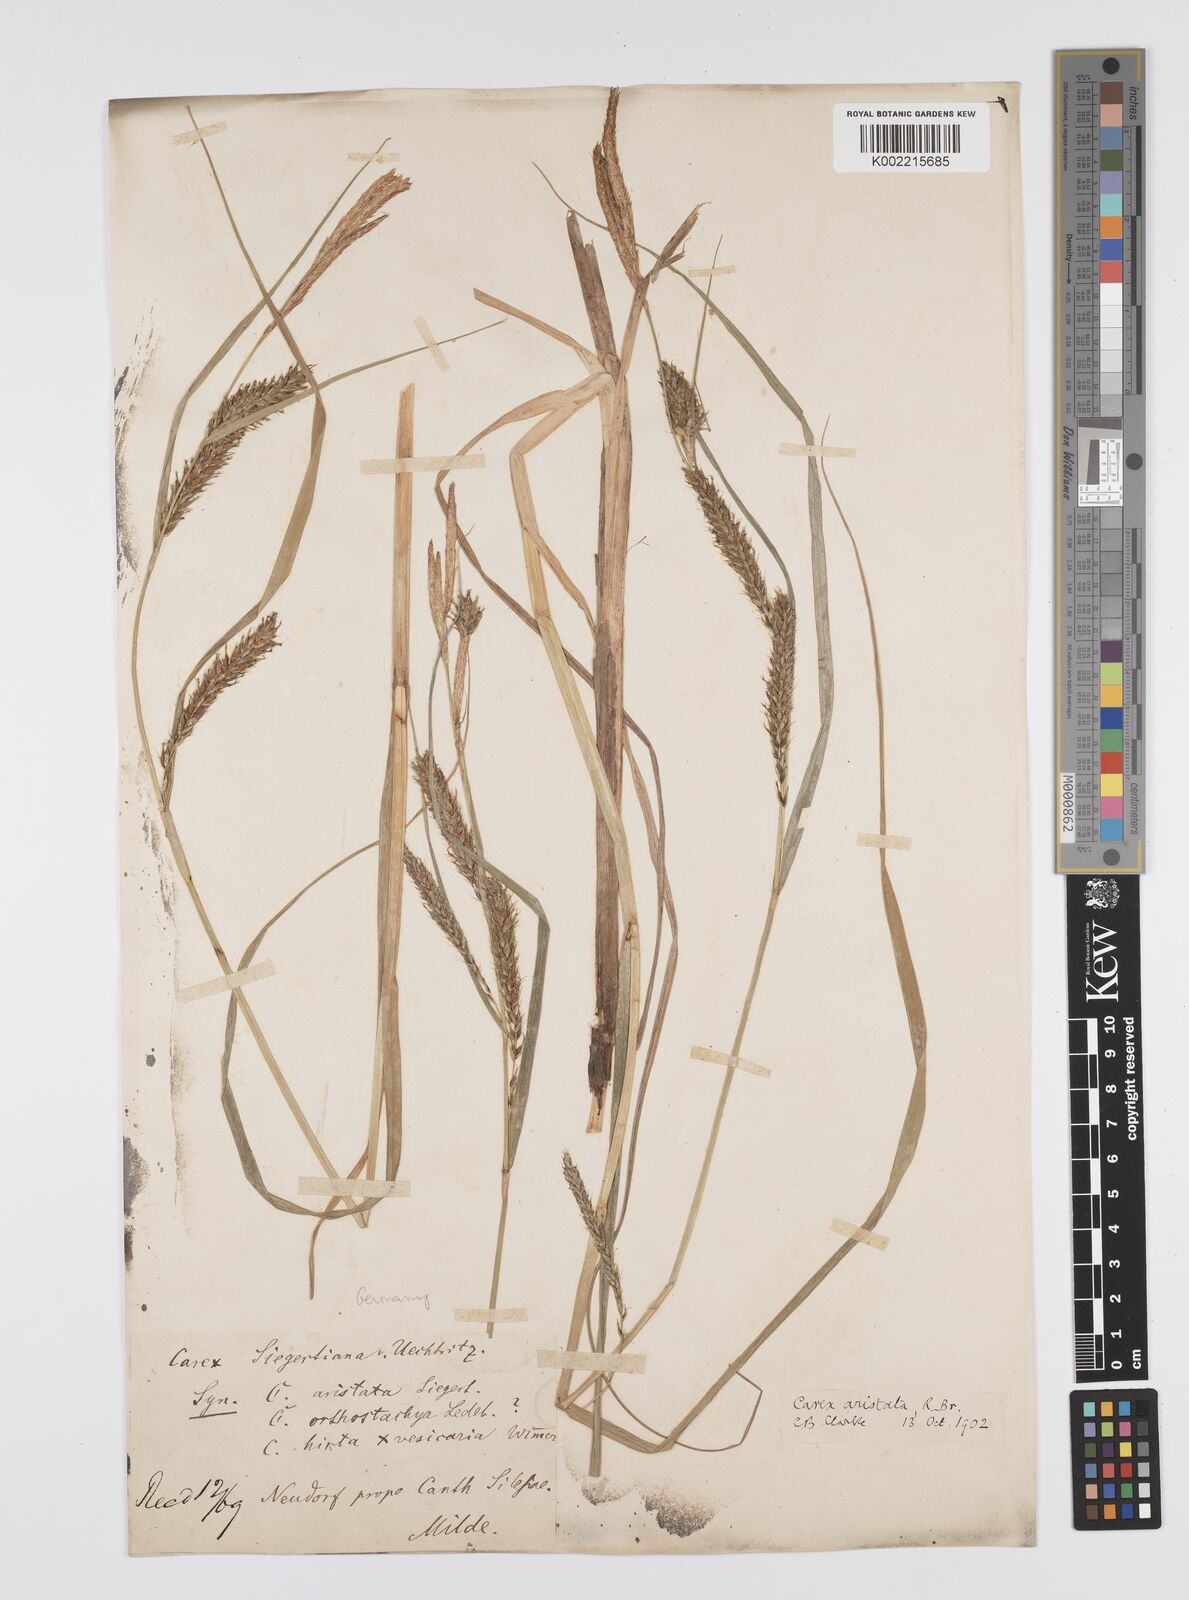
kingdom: Plantae
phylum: Tracheophyta
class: Liliopsida
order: Poales
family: Cyperaceae
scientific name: Cyperaceae
